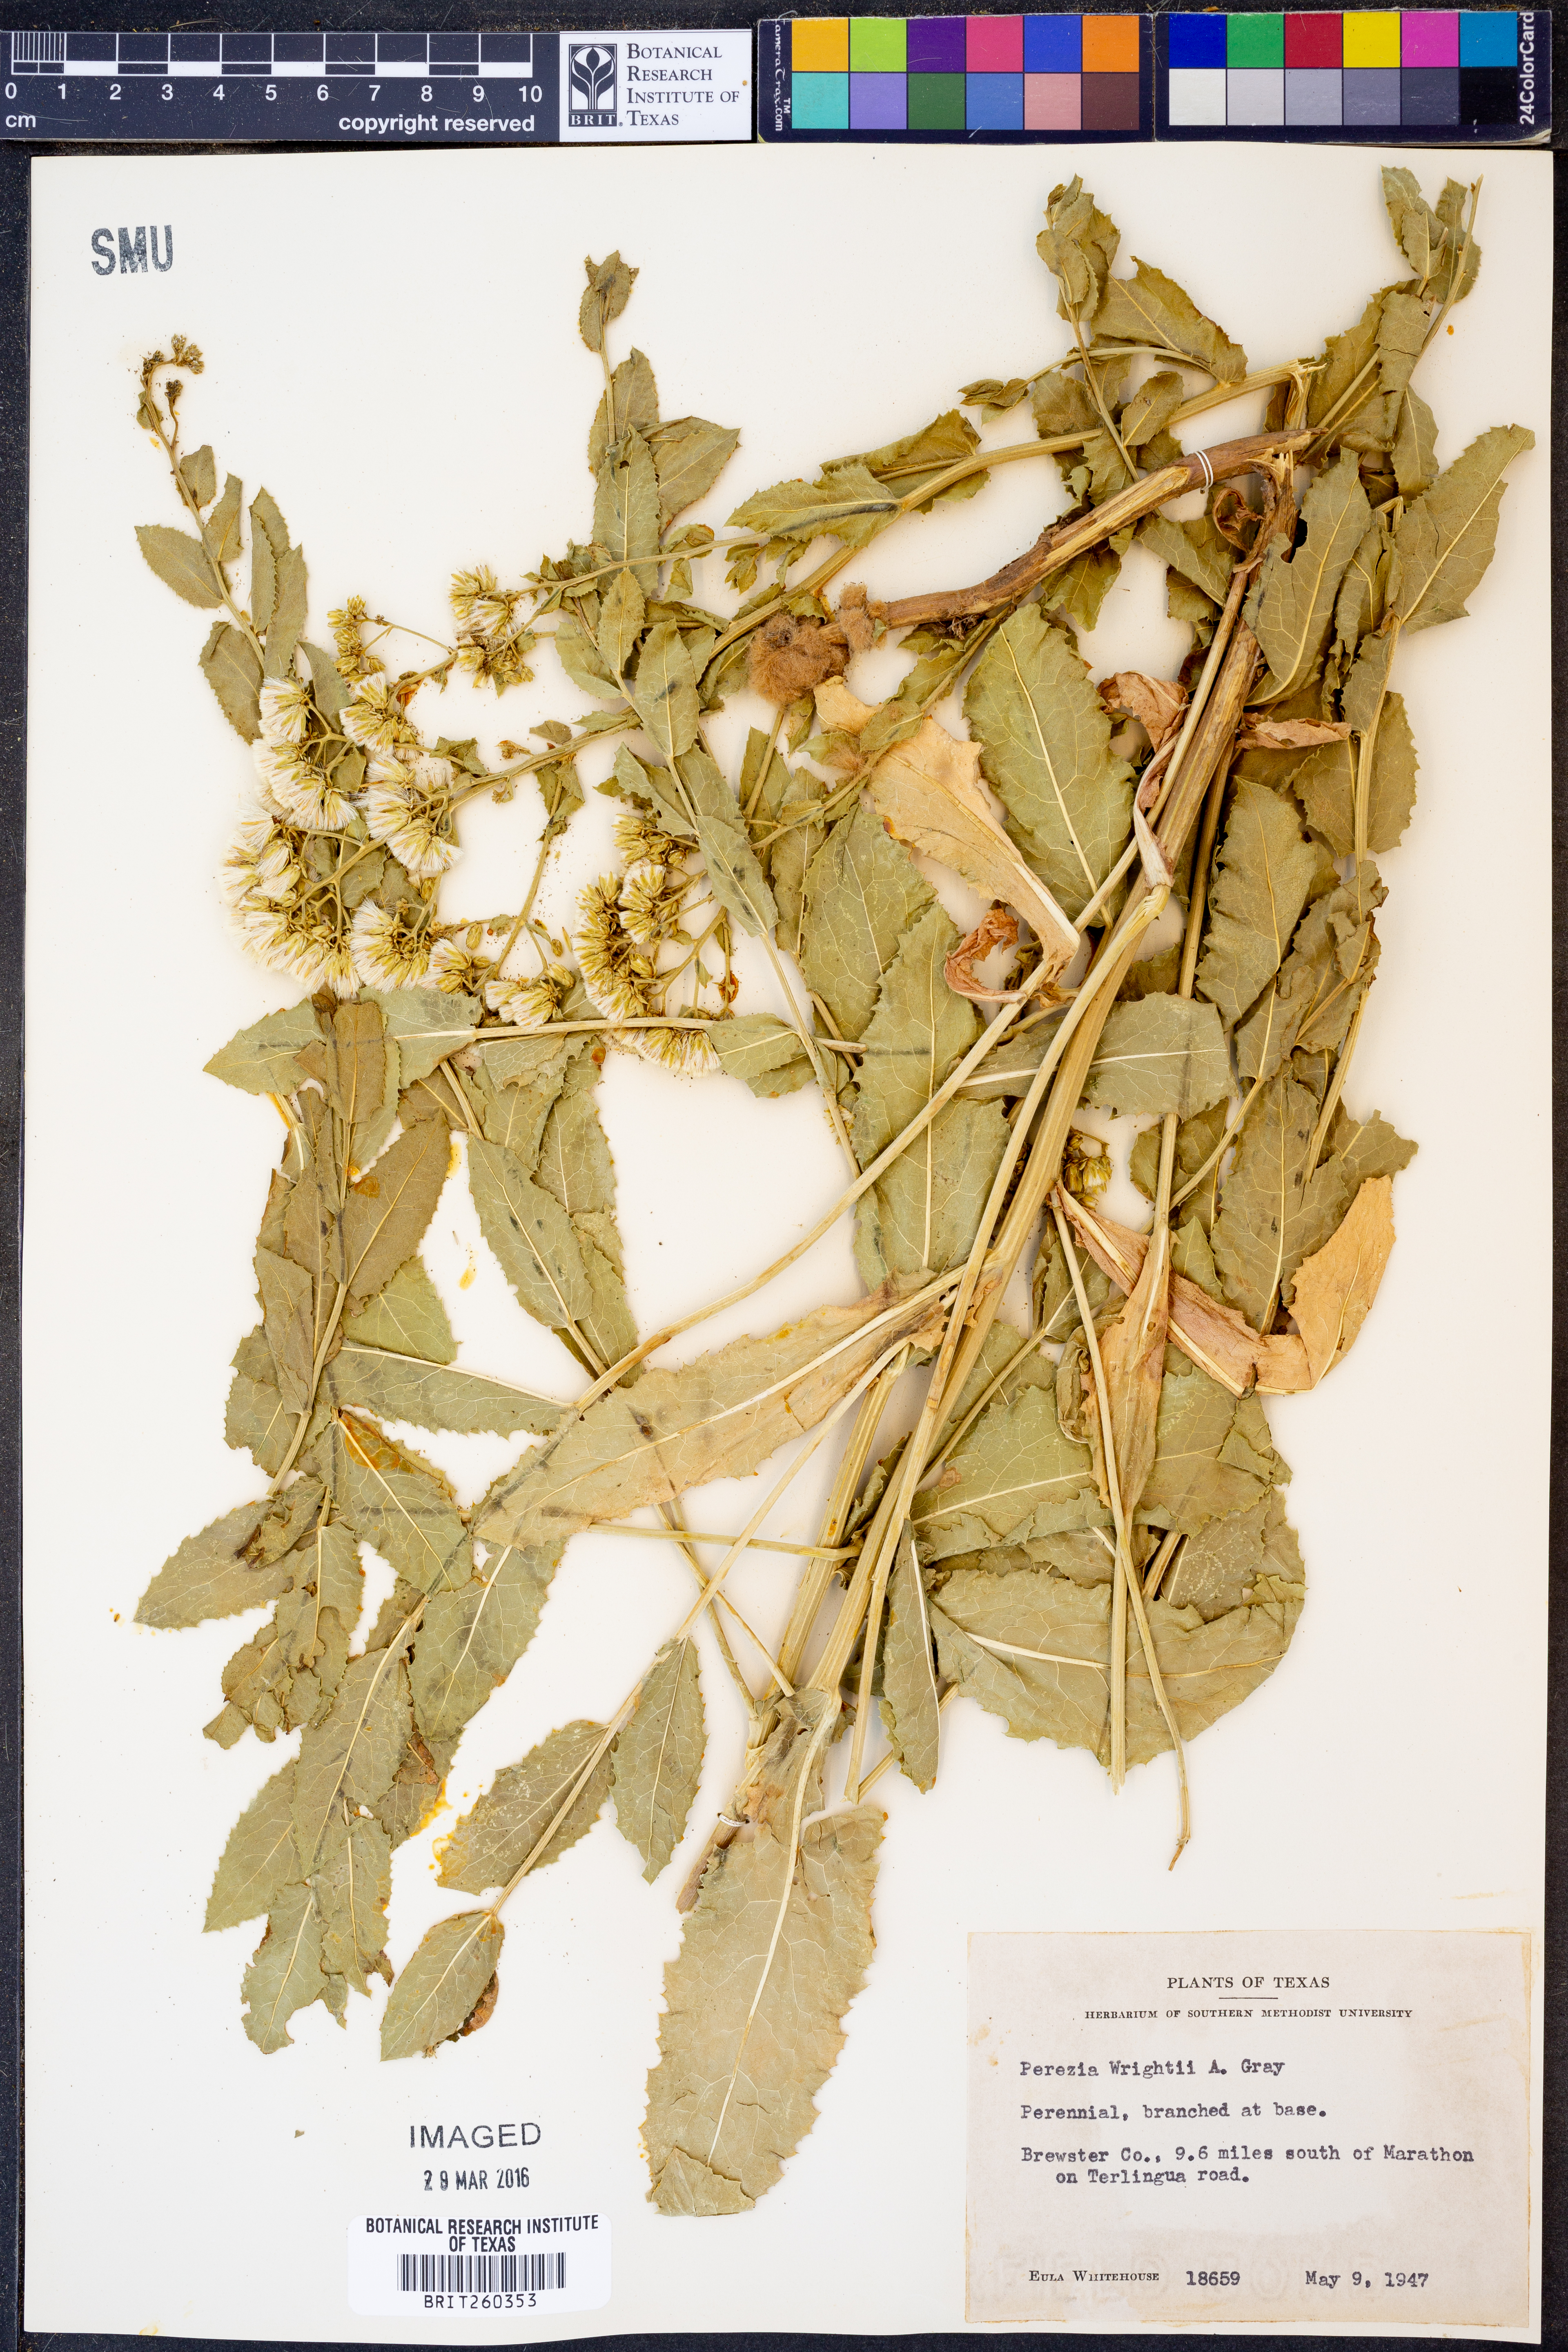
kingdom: Plantae
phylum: Tracheophyta
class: Magnoliopsida
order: Asterales
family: Asteraceae
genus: Acourtia
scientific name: Acourtia wrightii
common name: Brownfoot
